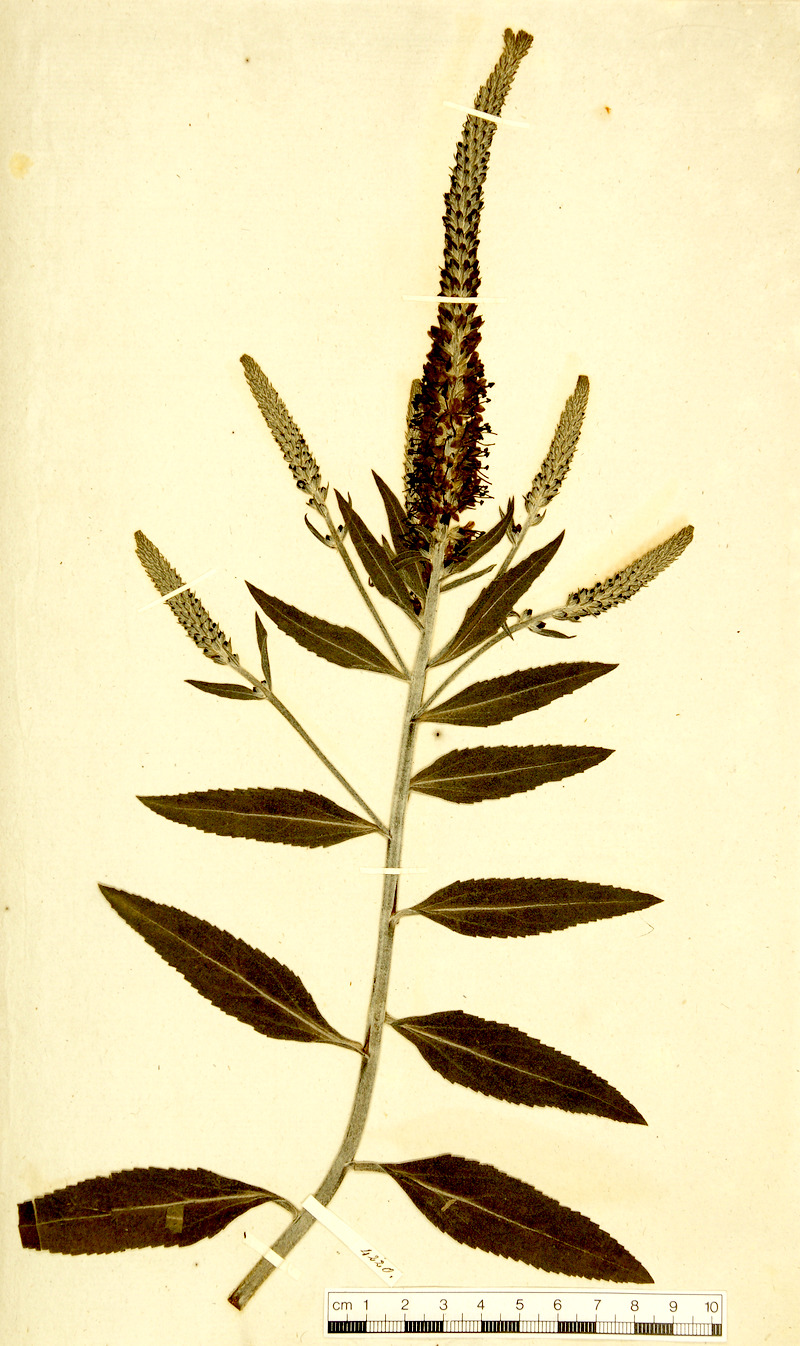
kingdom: Plantae
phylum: Tracheophyta
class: Magnoliopsida
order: Lamiales
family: Plantaginaceae
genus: Veronica
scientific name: Veronica orchidea
